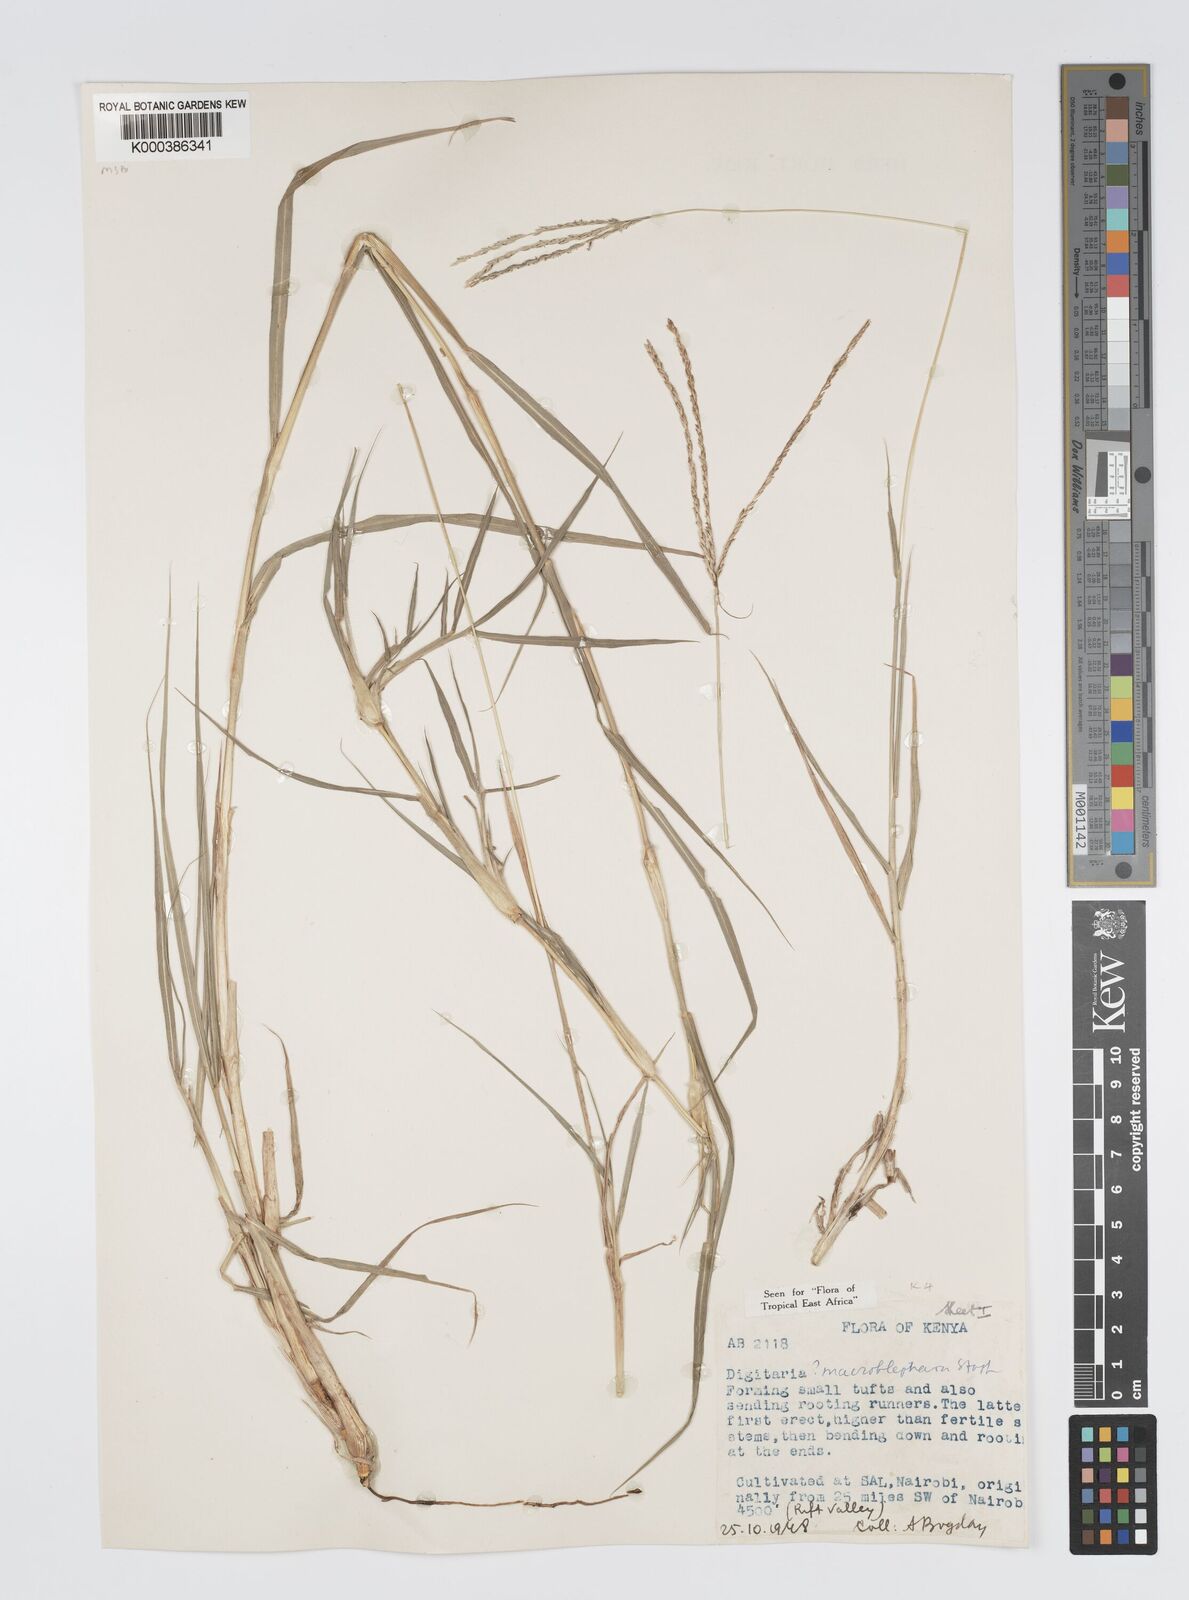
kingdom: Plantae
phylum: Tracheophyta
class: Liliopsida
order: Poales
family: Poaceae
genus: Digitaria
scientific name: Digitaria macroblephara
